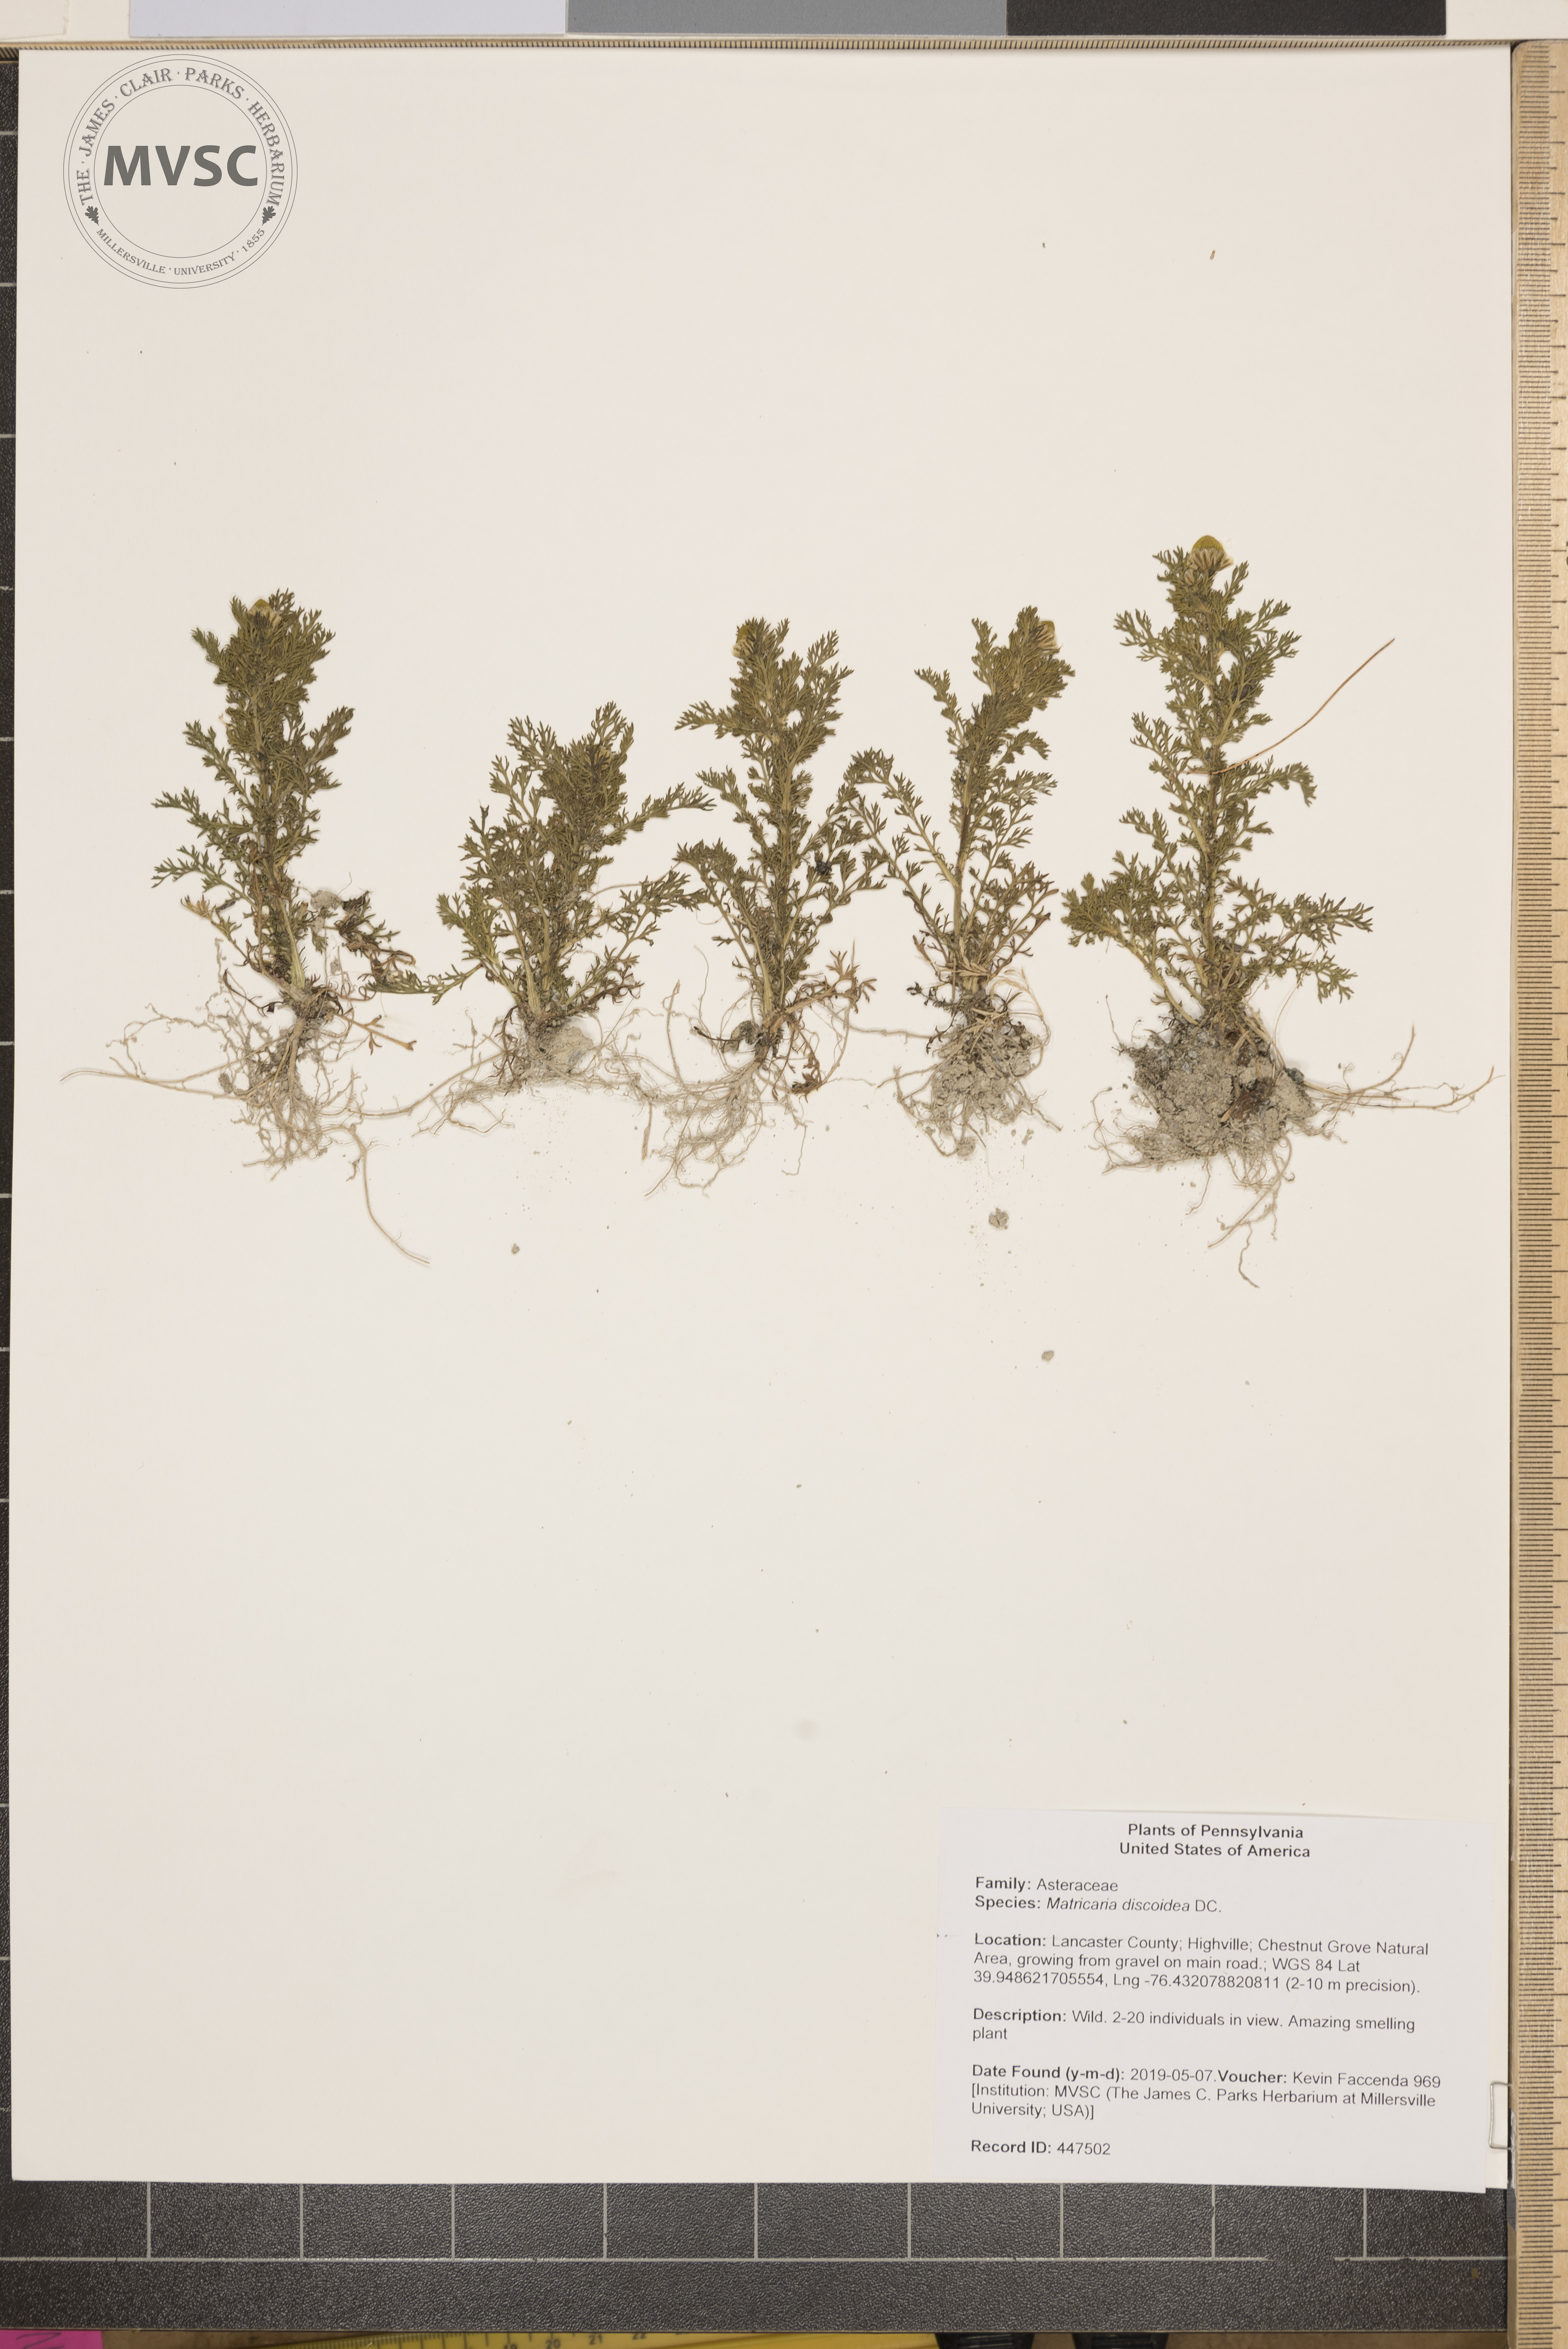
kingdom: Plantae
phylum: Tracheophyta
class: Magnoliopsida
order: Asterales
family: Asteraceae
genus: Matricaria
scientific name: Matricaria discoidea
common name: Disc mayweed
